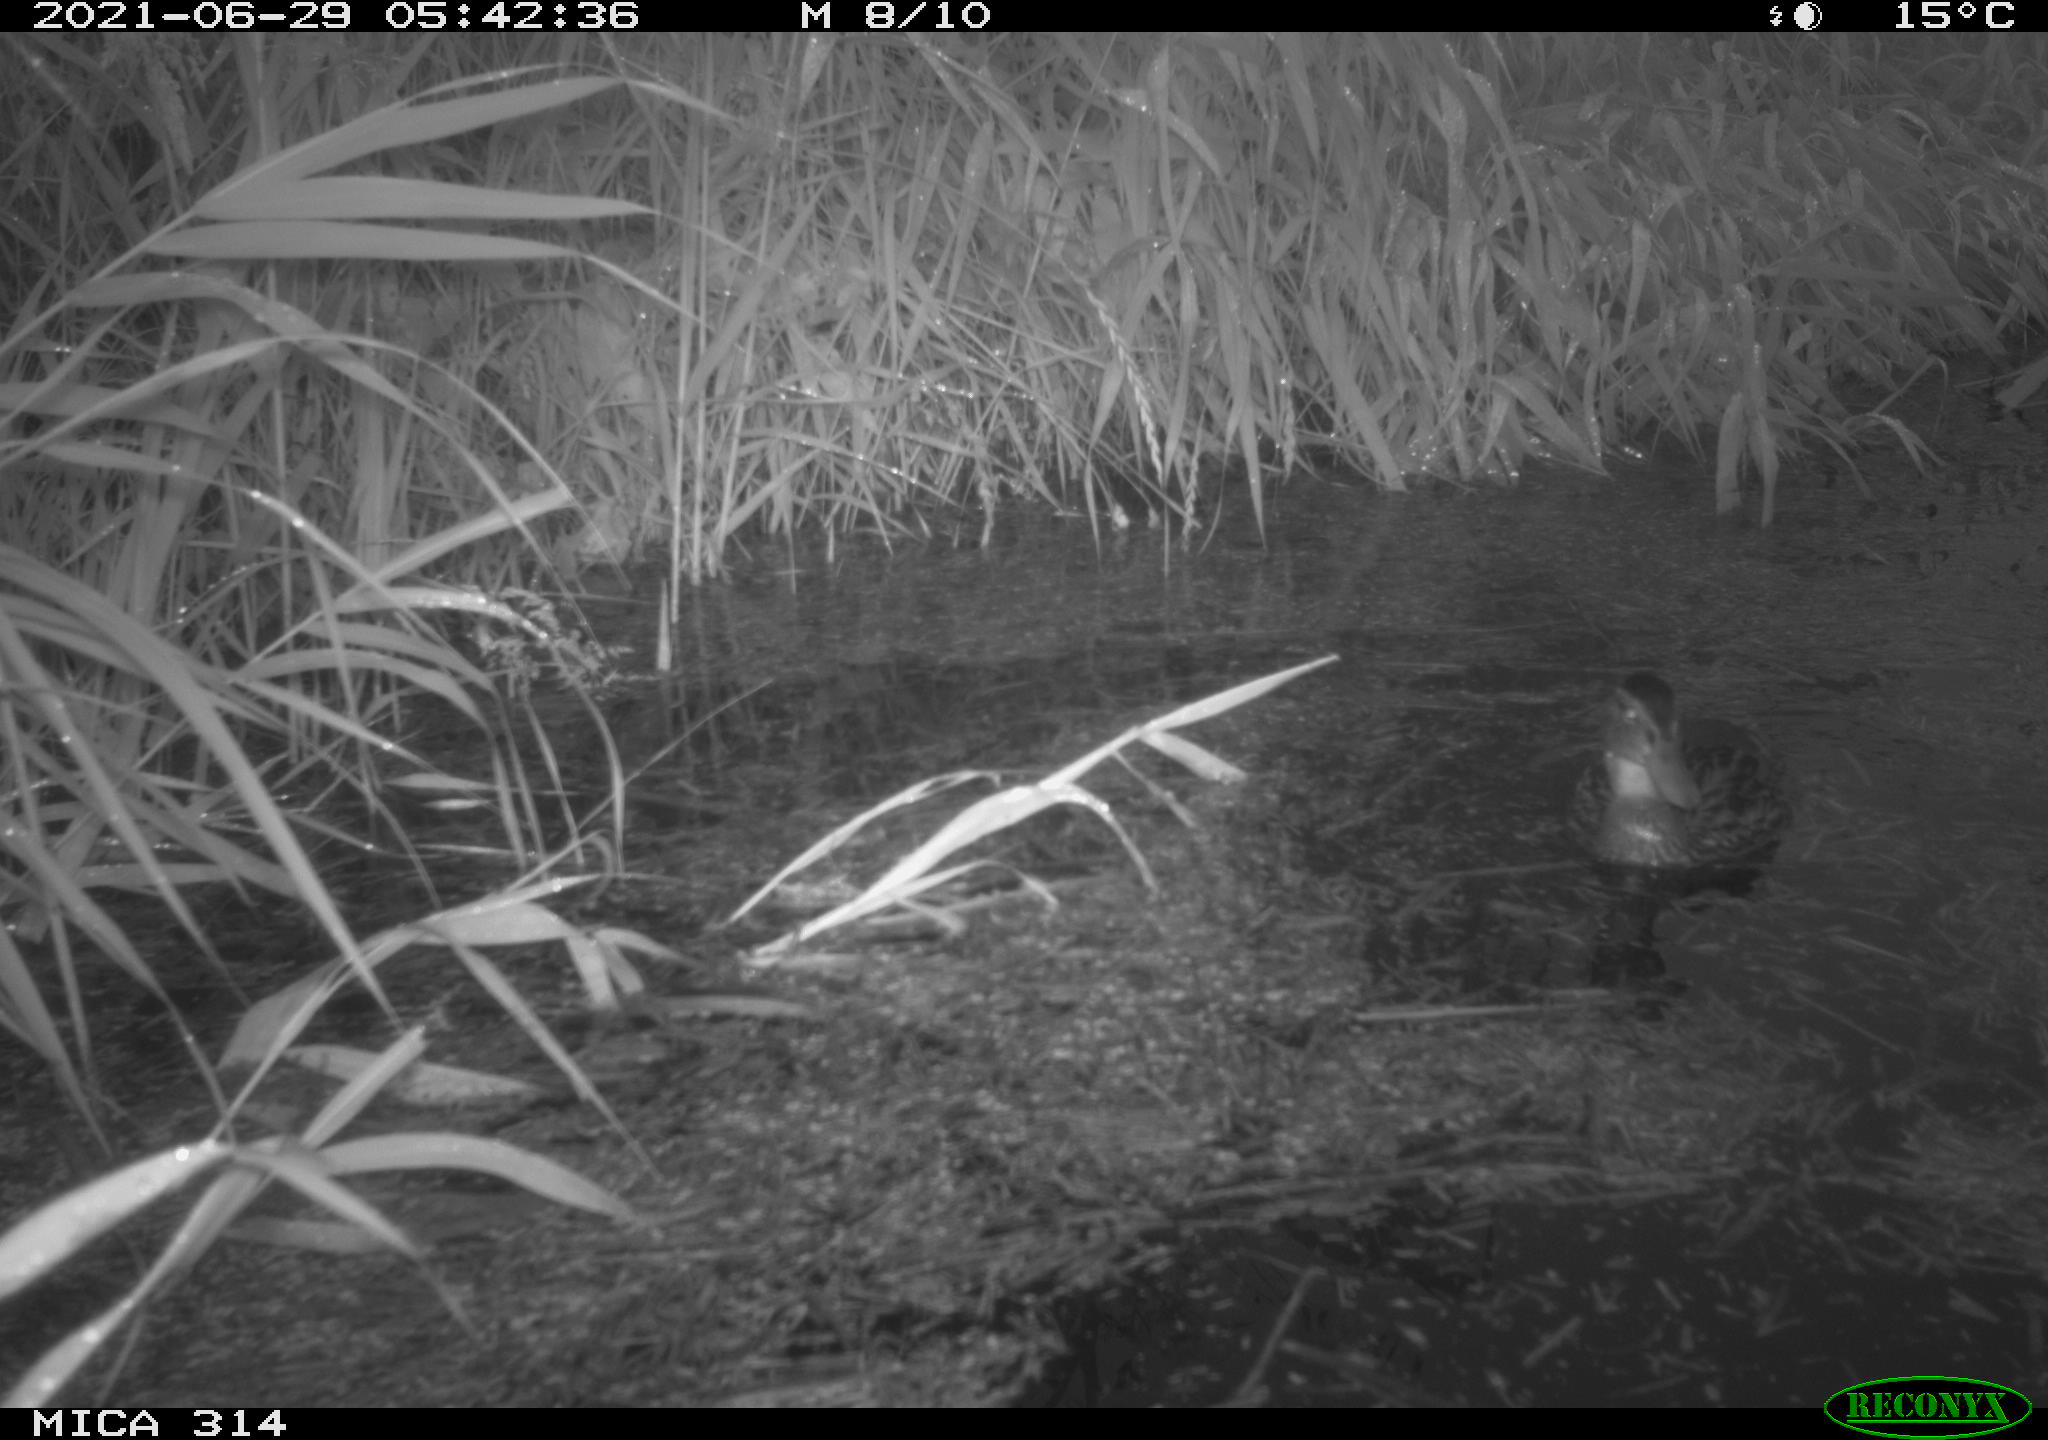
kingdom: Animalia
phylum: Chordata
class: Aves
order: Anseriformes
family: Anatidae
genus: Anas
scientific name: Anas
